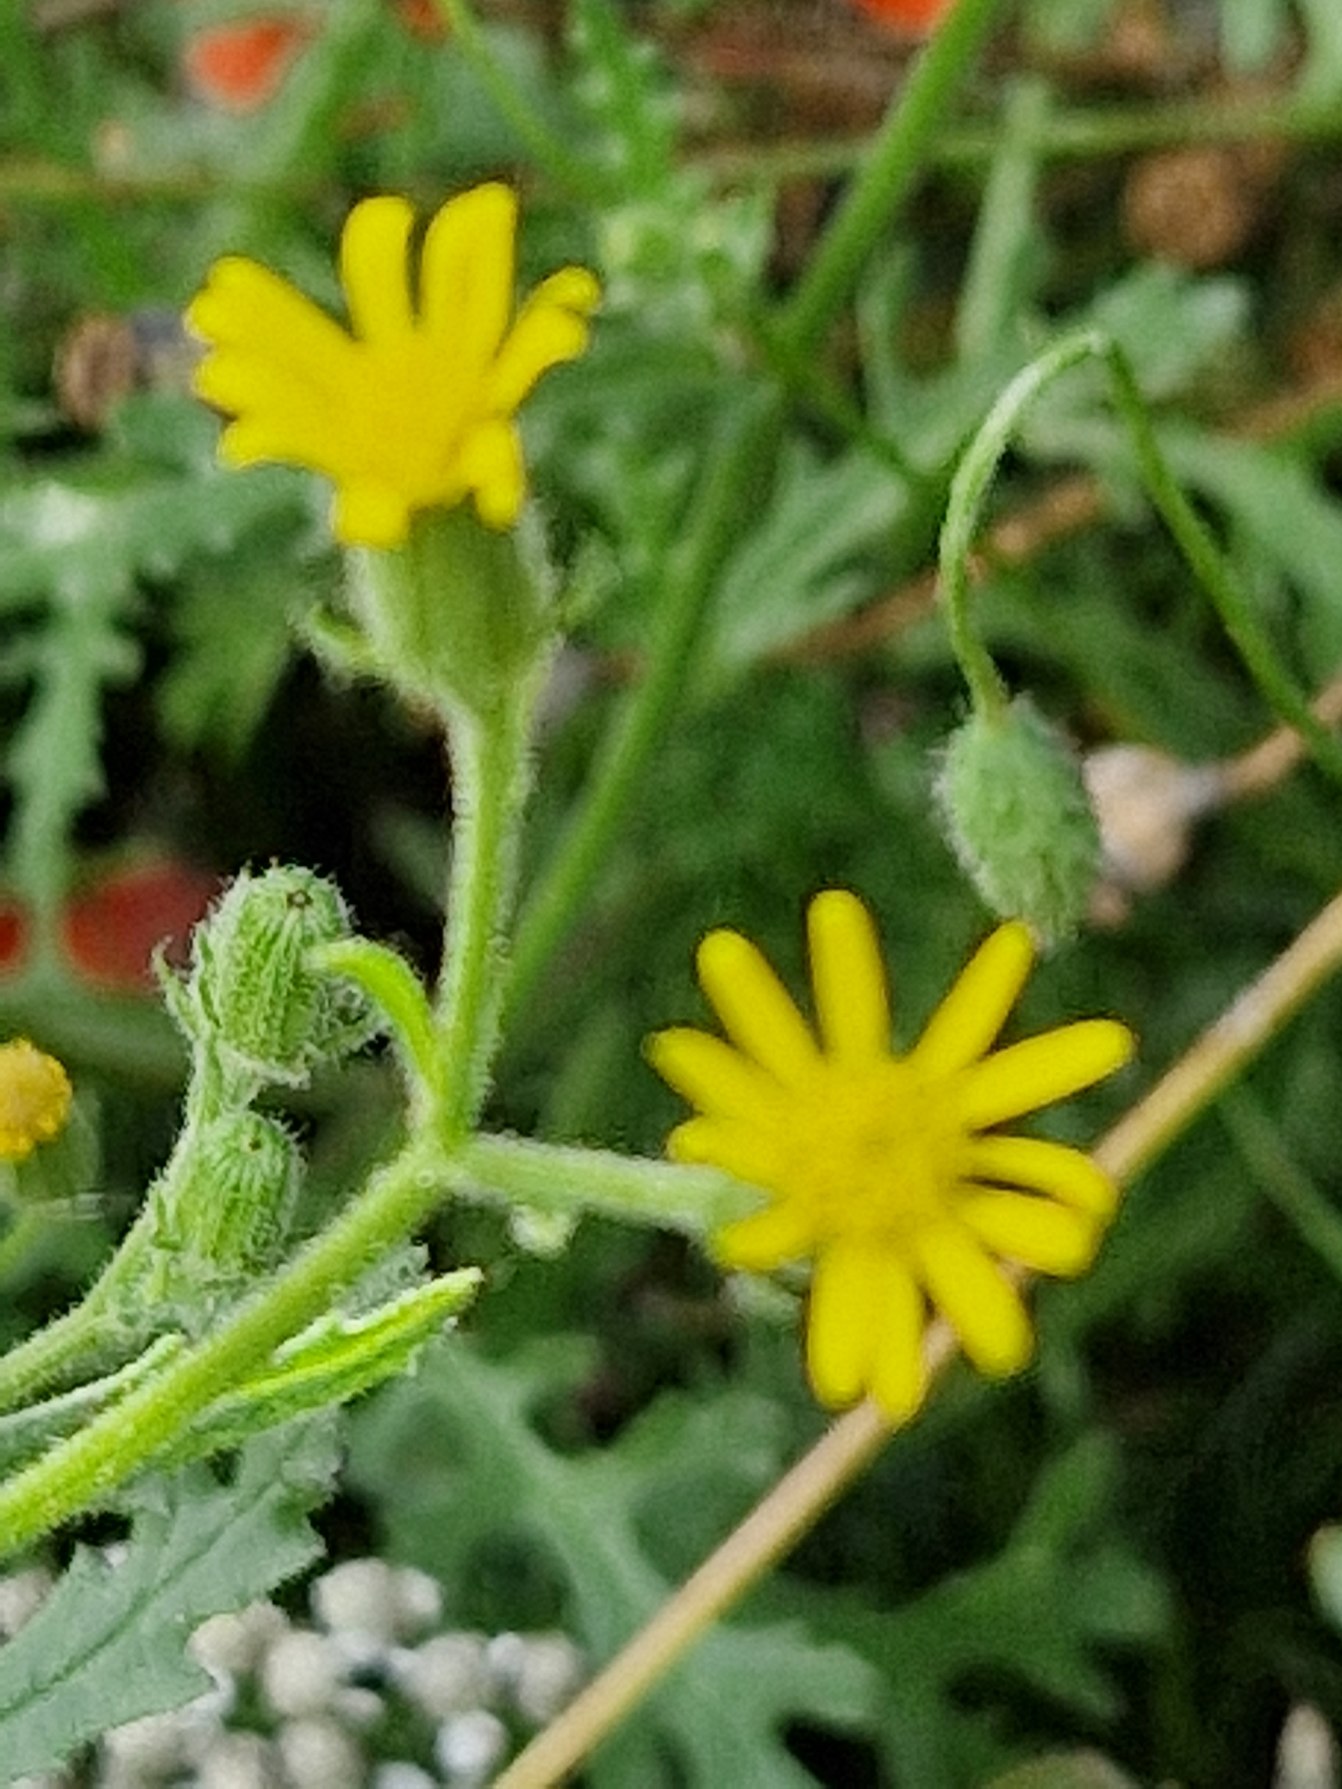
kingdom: Plantae
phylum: Tracheophyta
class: Magnoliopsida
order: Asterales
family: Asteraceae
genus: Senecio
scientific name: Senecio viscosus
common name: Klæbrig brandbæger
